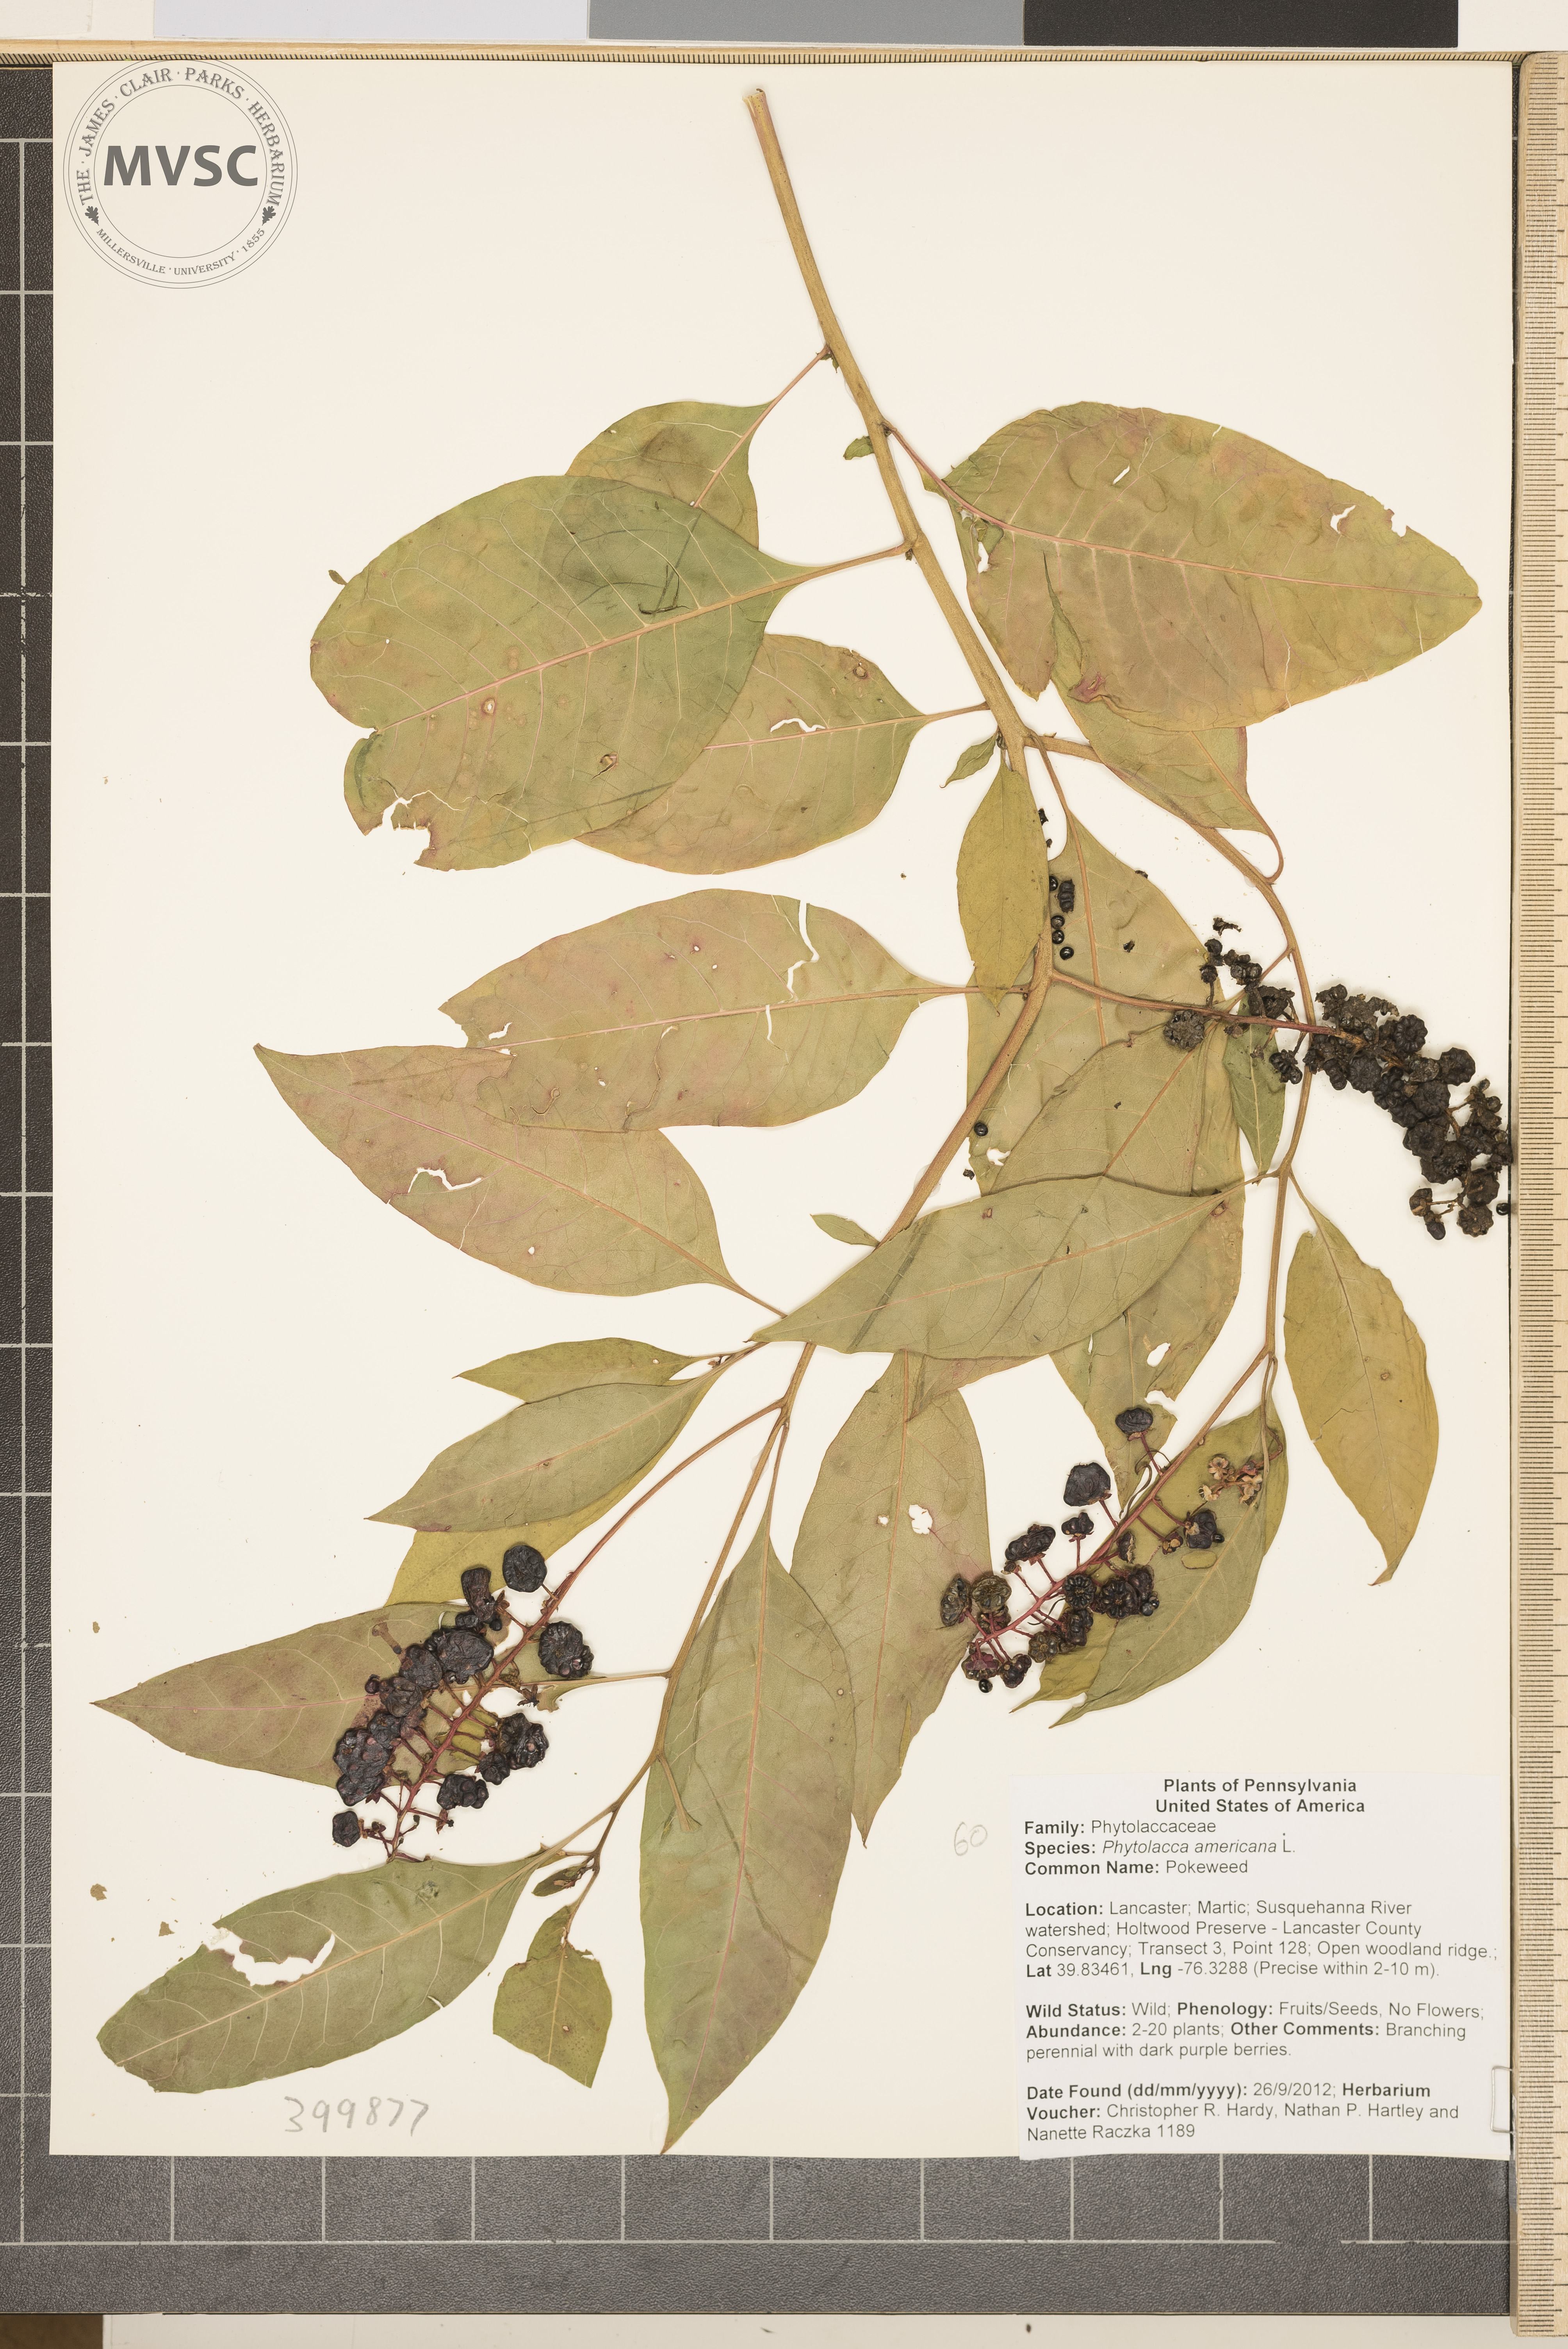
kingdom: Plantae
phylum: Tracheophyta
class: Magnoliopsida
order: Caryophyllales
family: Phytolaccaceae
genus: Phytolacca
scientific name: Phytolacca americana
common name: Pokeweed
